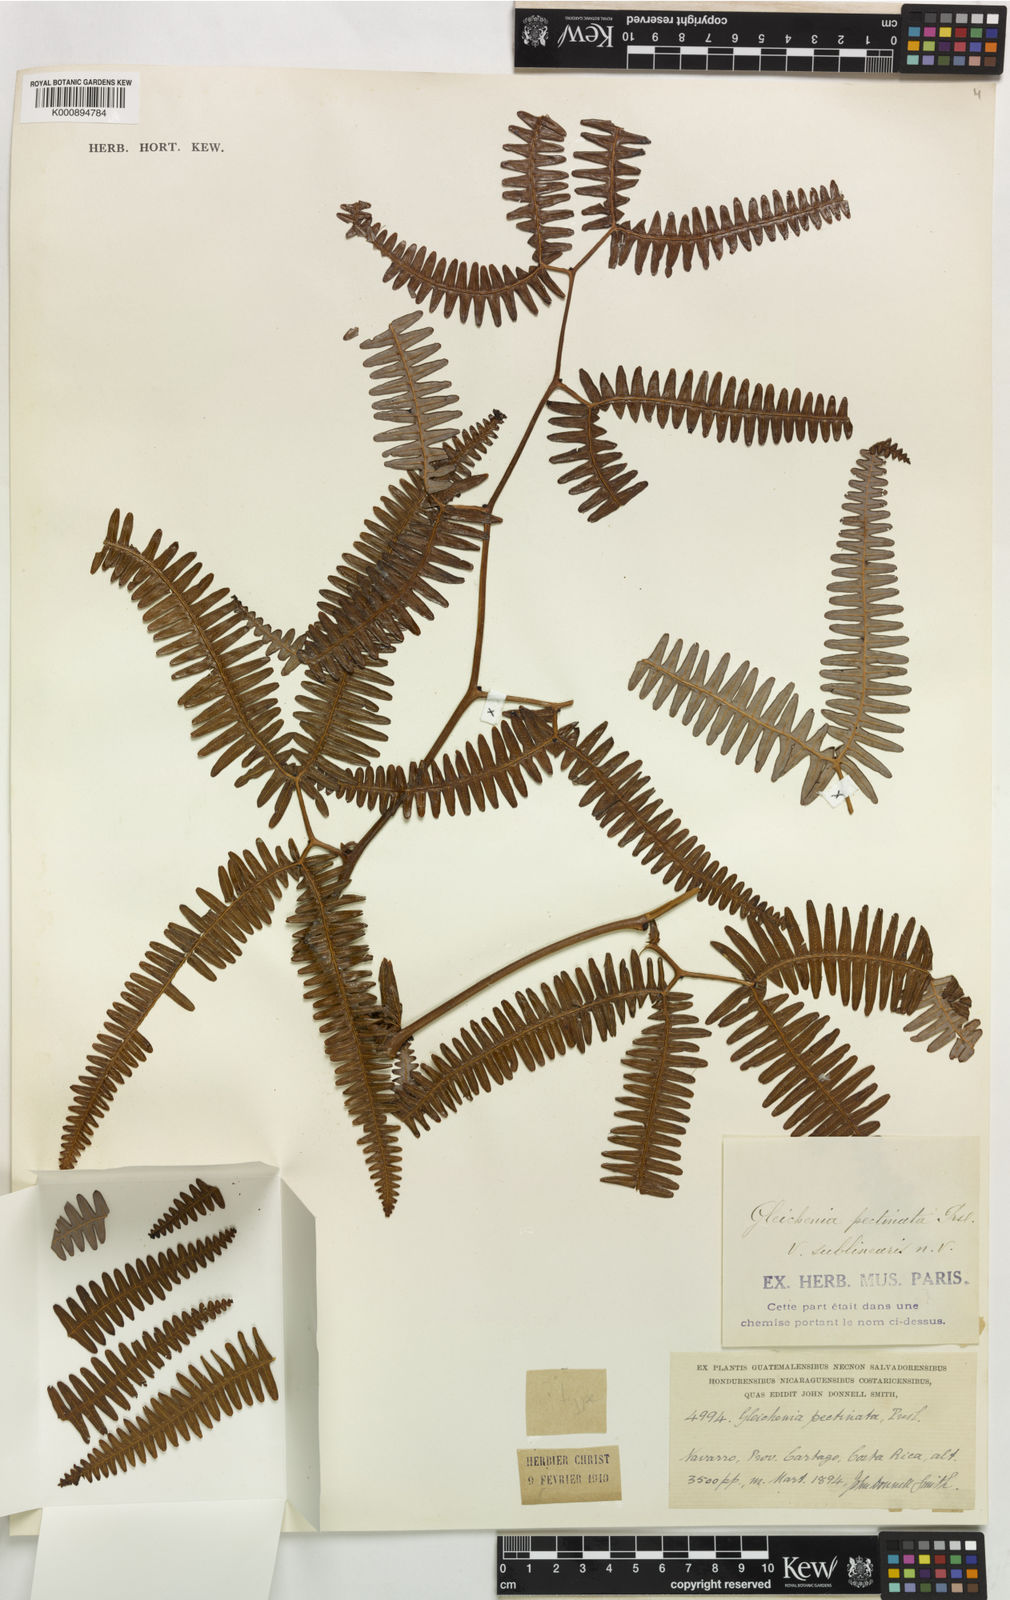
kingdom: Plantae
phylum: Tracheophyta
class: Polypodiopsida
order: Gleicheniales
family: Gleicheniaceae
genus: Gleichenella
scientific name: Gleichenella pectinata
